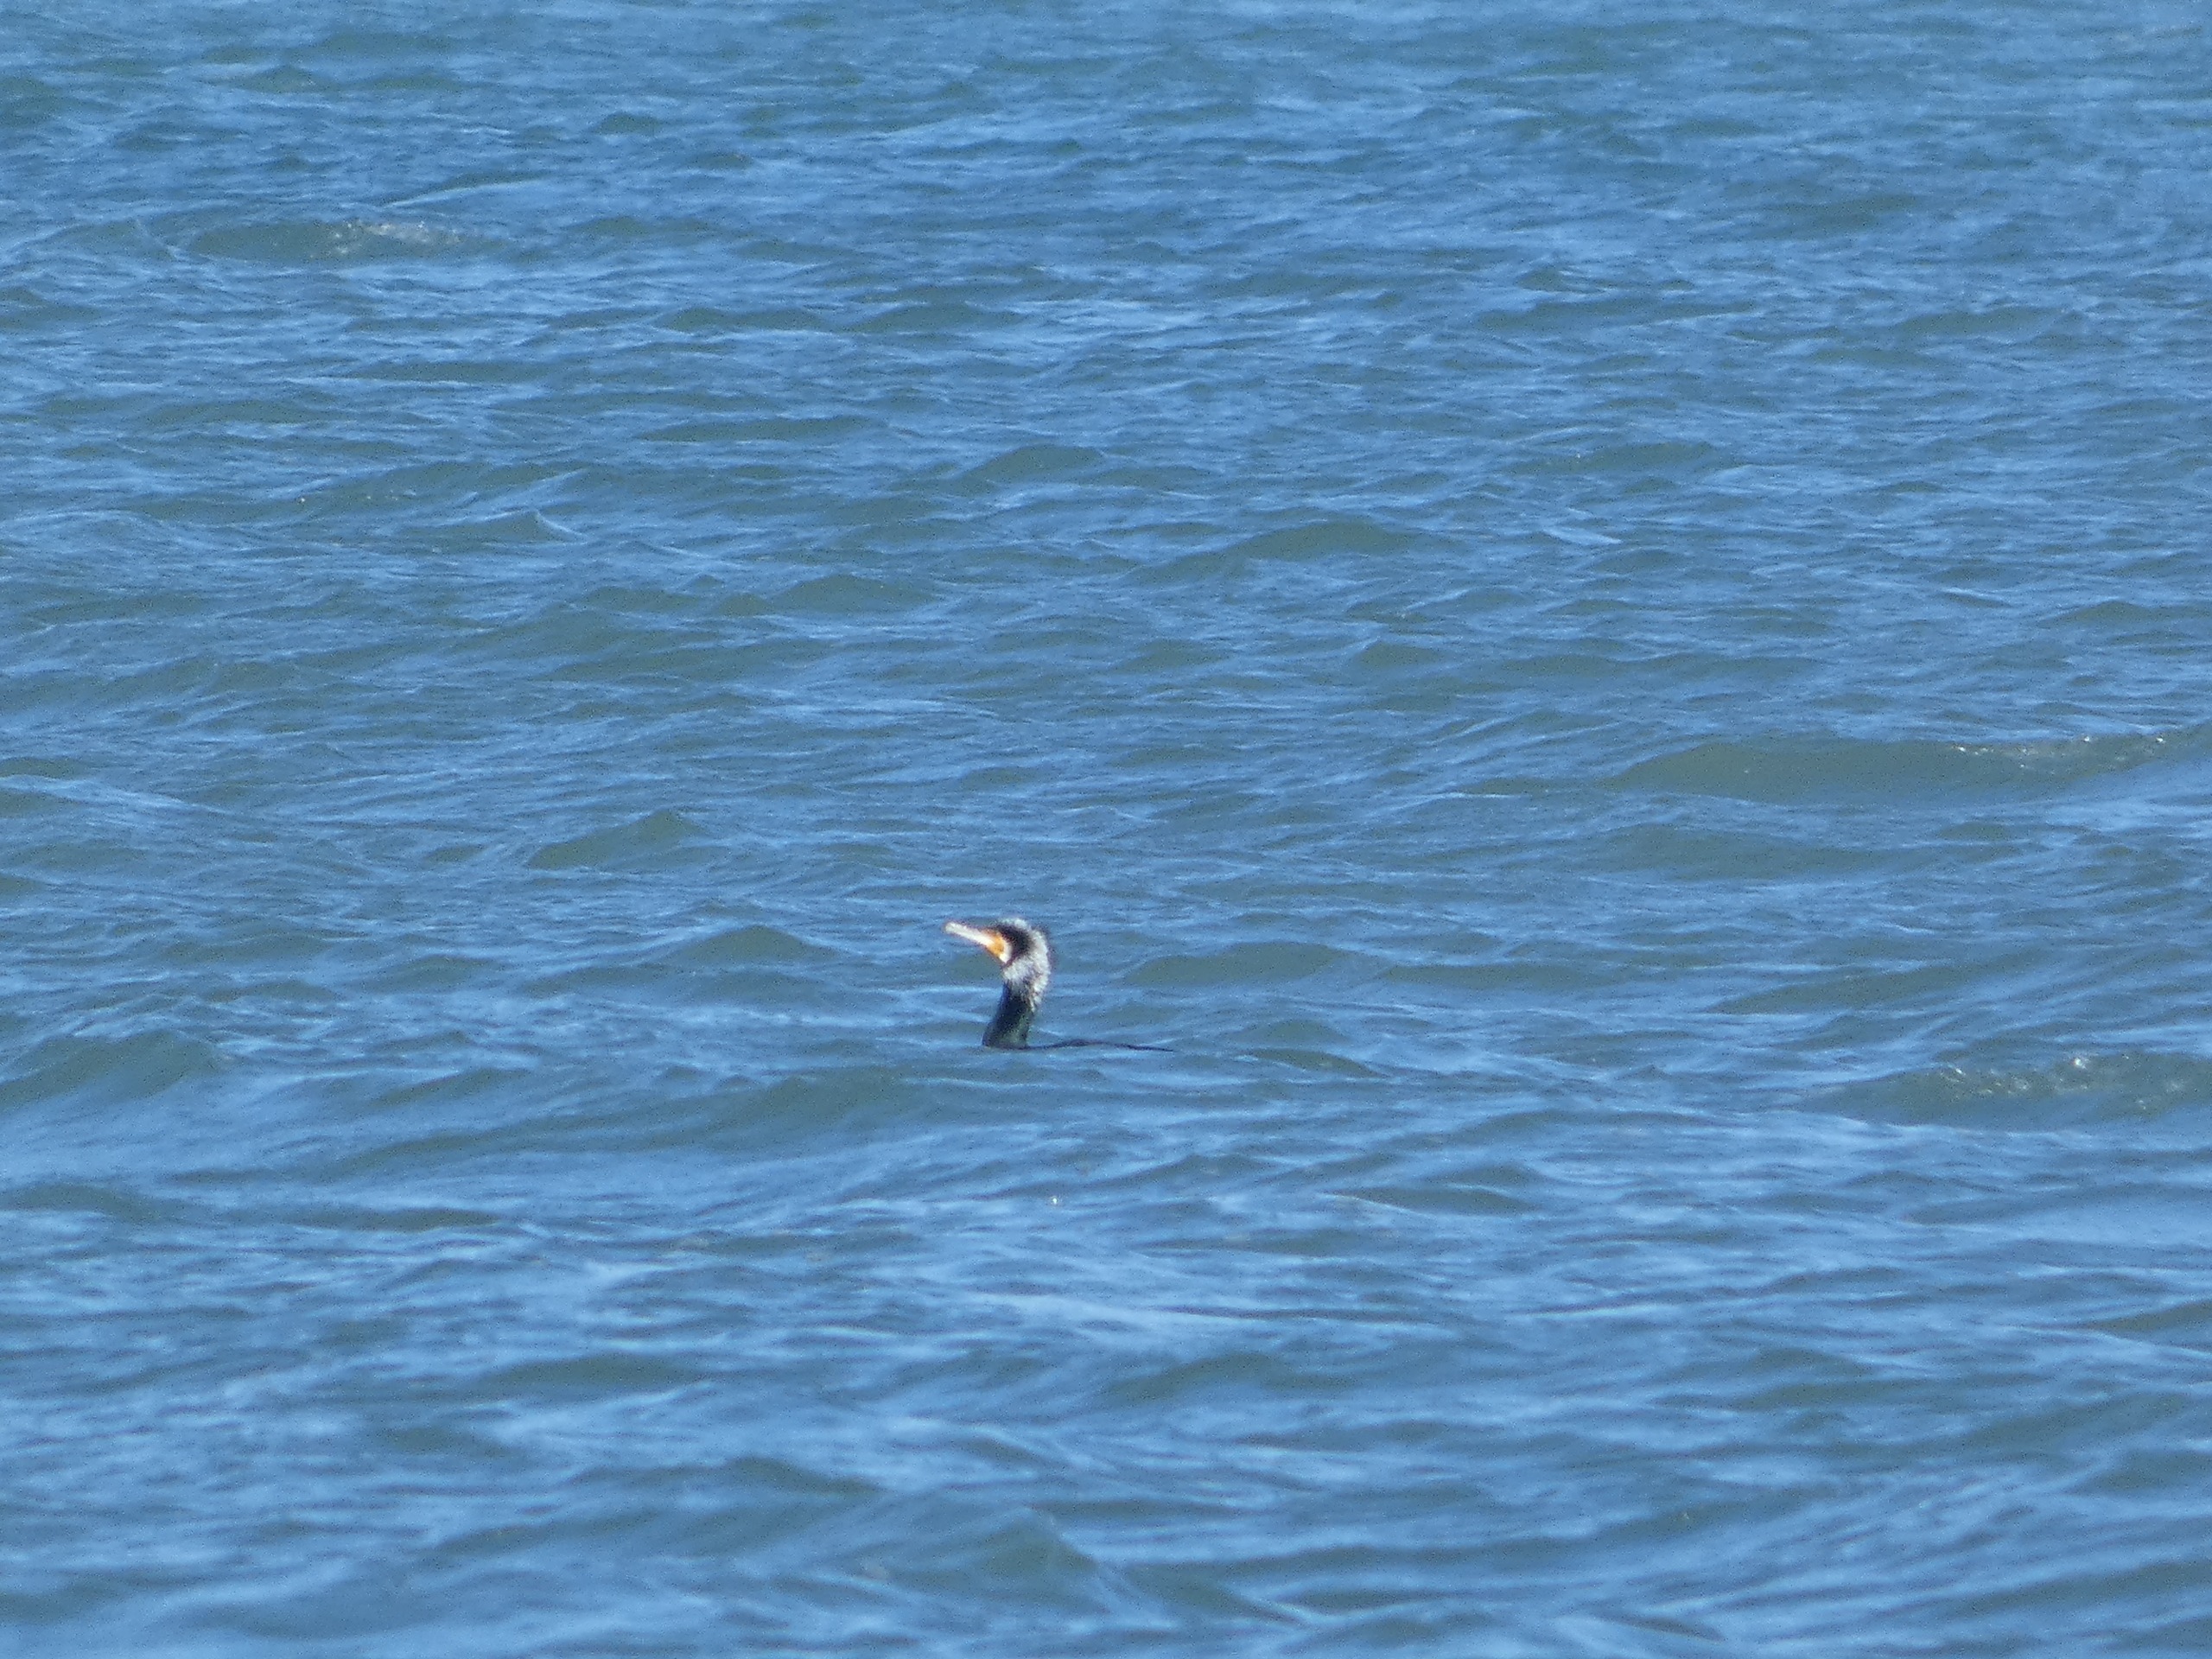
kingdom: Animalia
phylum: Chordata
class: Aves
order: Suliformes
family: Phalacrocoracidae
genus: Phalacrocorax
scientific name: Phalacrocorax carbo
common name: Skarv
